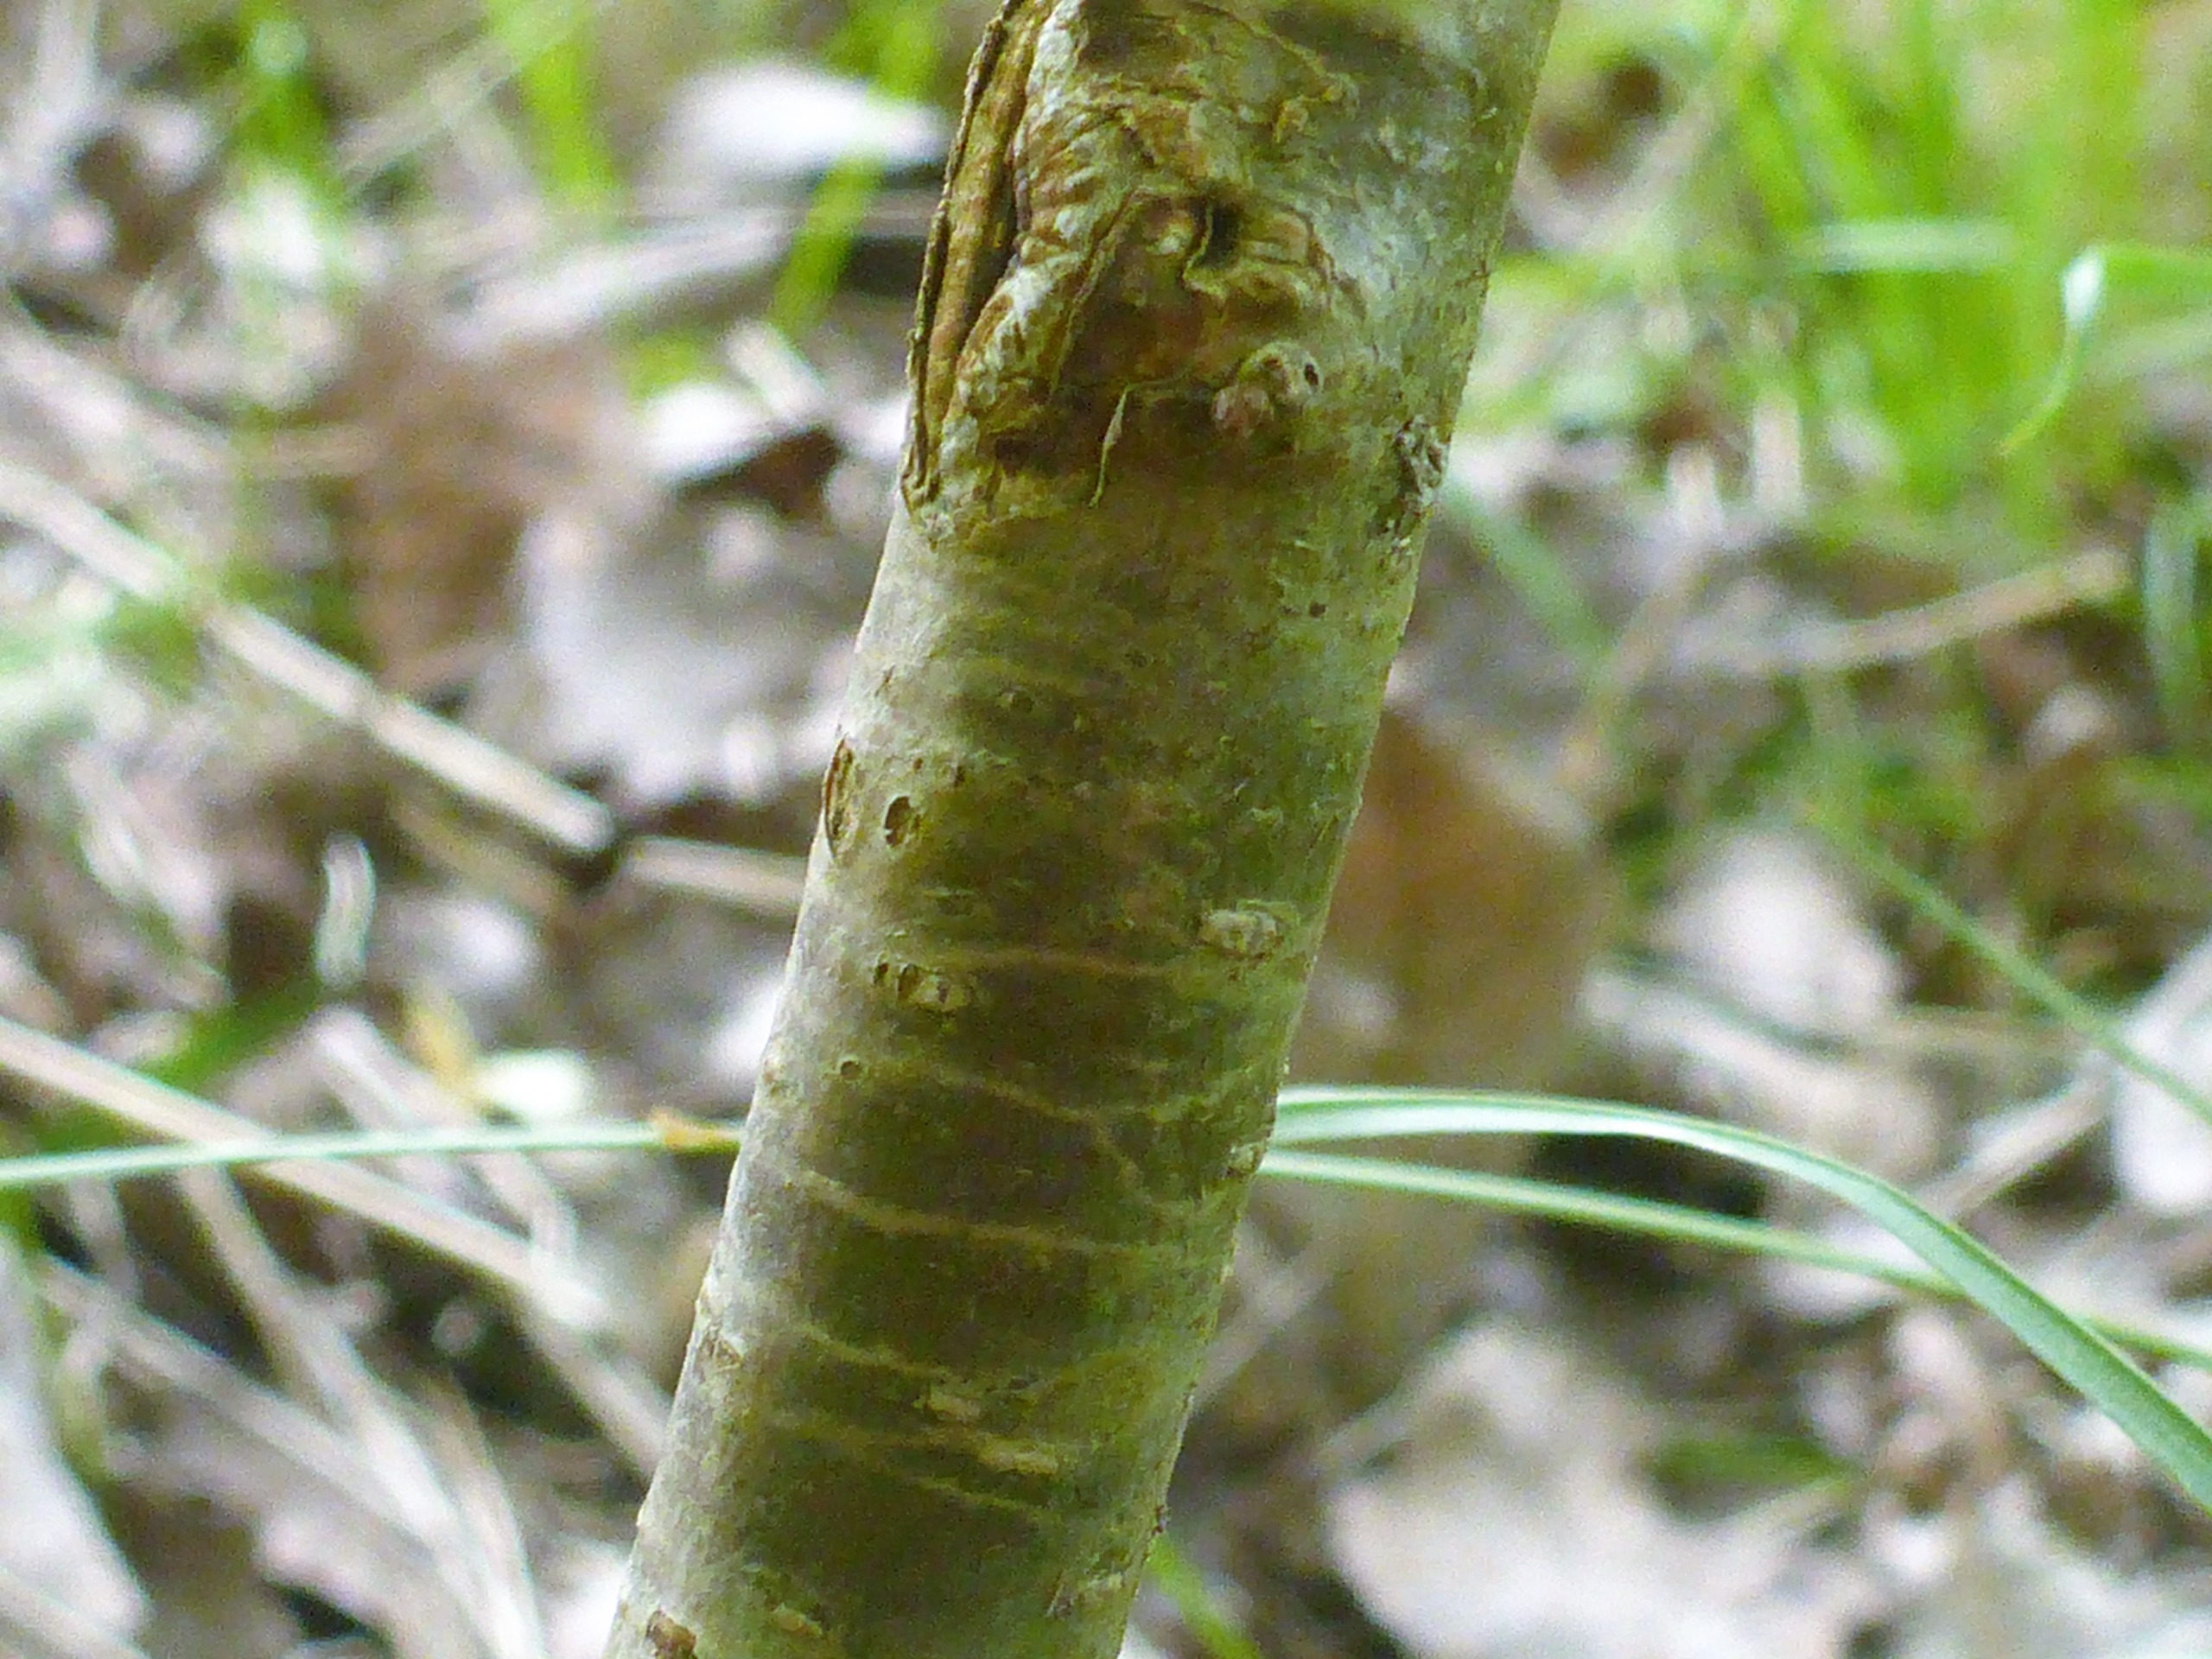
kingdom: Plantae
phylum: Tracheophyta
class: Magnoliopsida
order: Fagales
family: Betulaceae
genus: Corylus
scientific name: Corylus avellana
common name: Hassel
